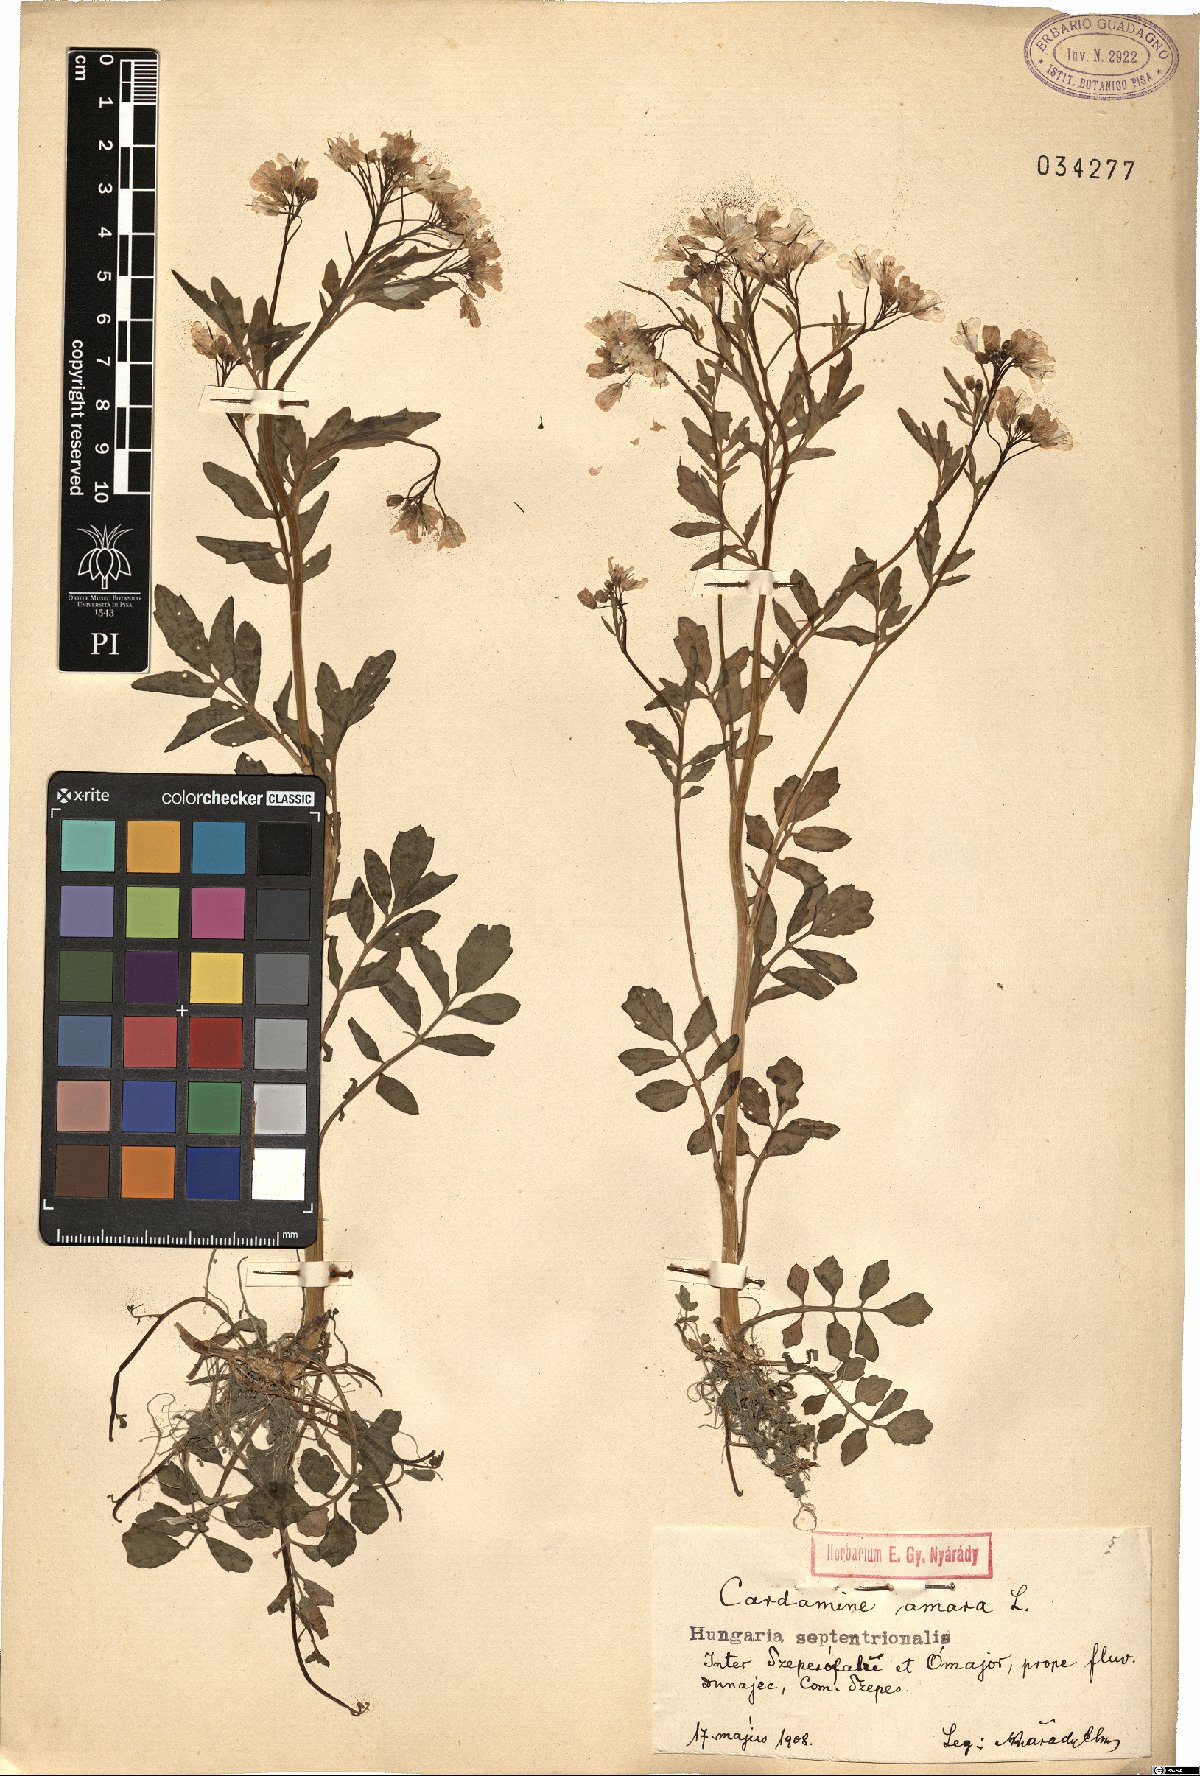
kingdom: Plantae
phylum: Tracheophyta
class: Magnoliopsida
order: Brassicales
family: Brassicaceae
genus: Cardamine
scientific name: Cardamine amara
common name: Large bitter-cress
